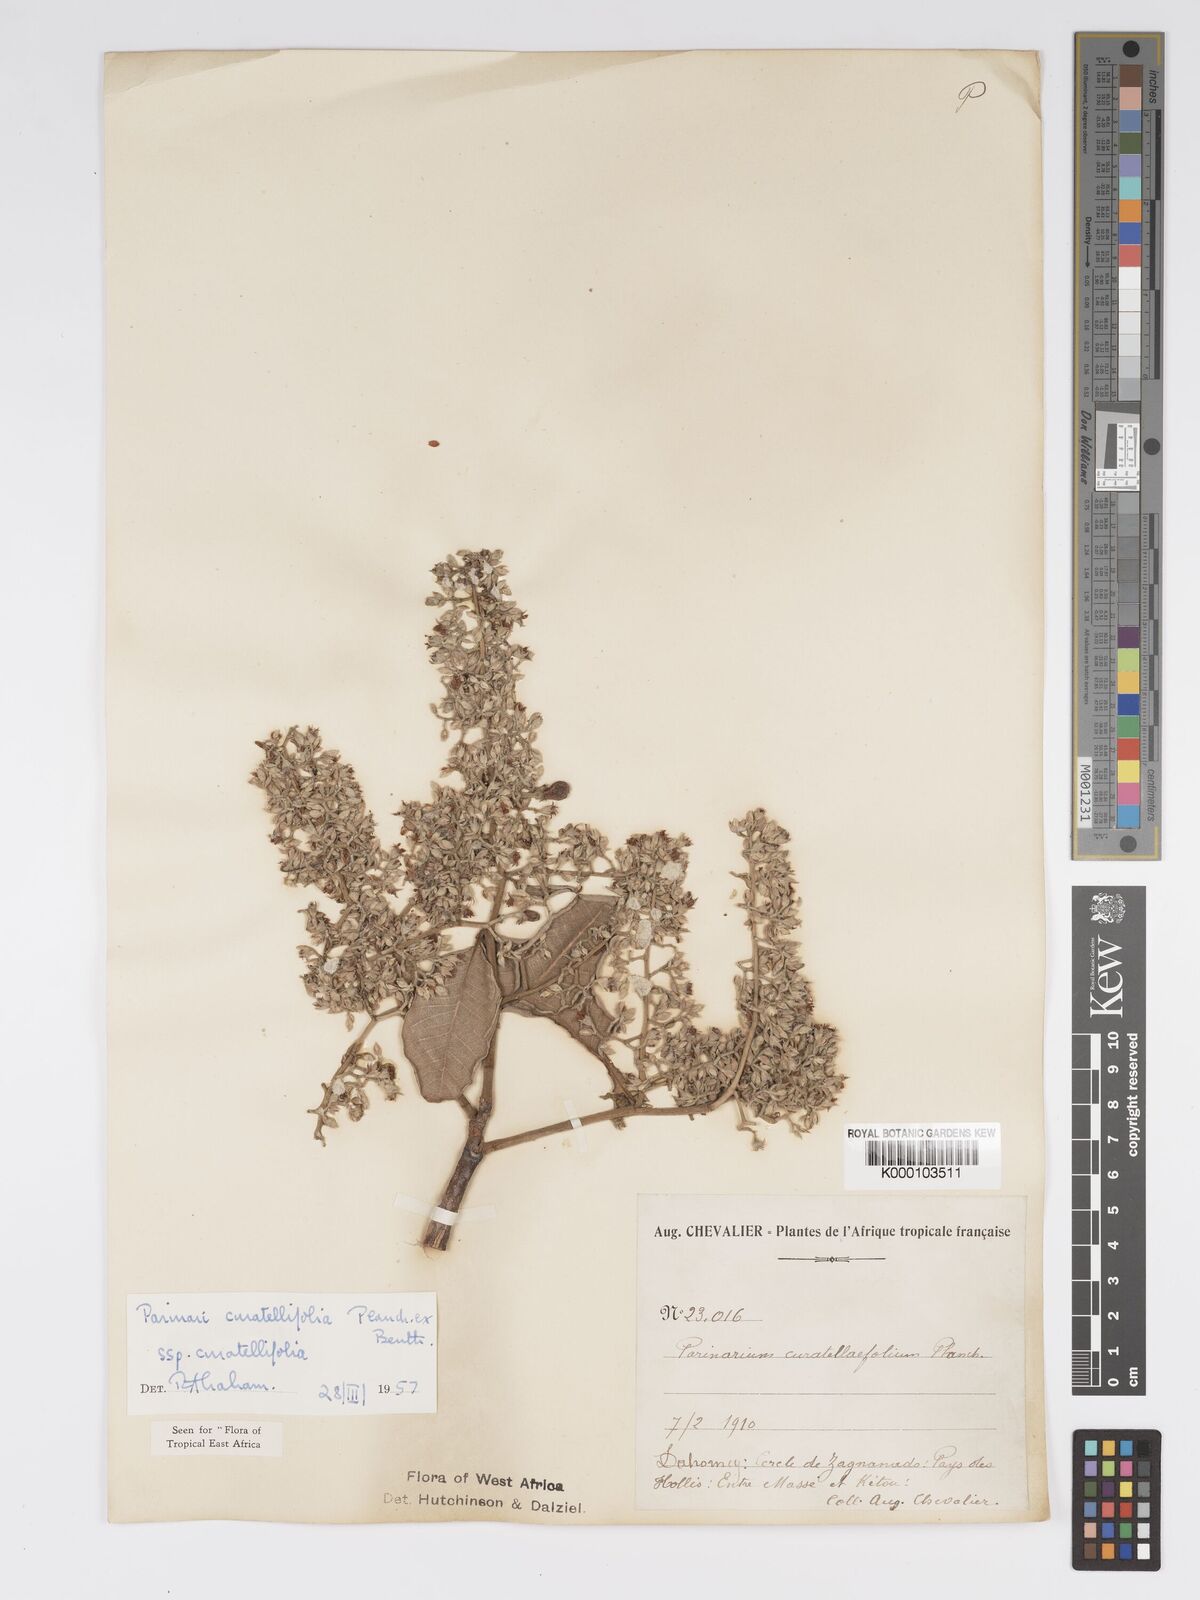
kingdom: Plantae
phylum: Tracheophyta
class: Magnoliopsida
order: Malpighiales
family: Chrysobalanaceae
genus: Parinari
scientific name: Parinari curatellifolia
